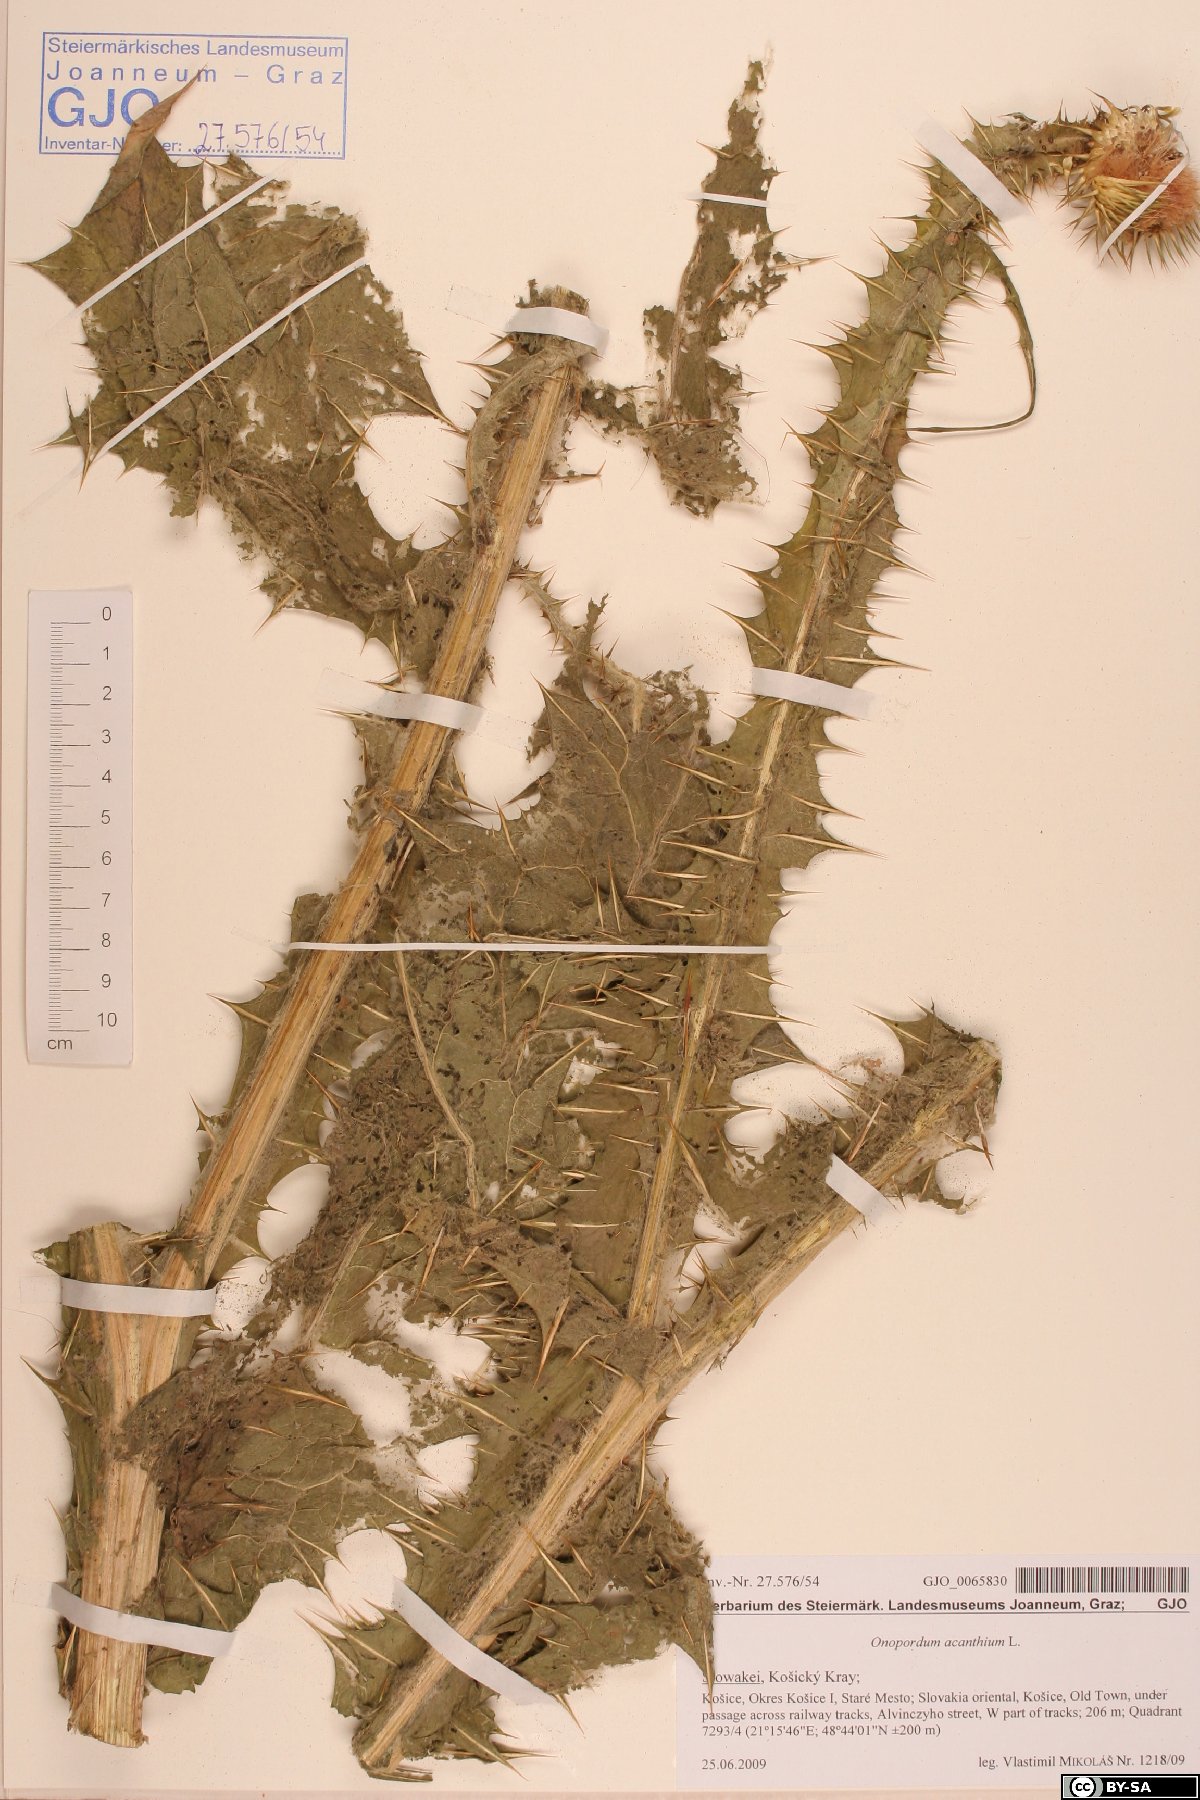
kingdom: Plantae
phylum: Tracheophyta
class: Magnoliopsida
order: Asterales
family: Asteraceae
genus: Onopordum
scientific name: Onopordum acanthium
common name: Scotch thistle
